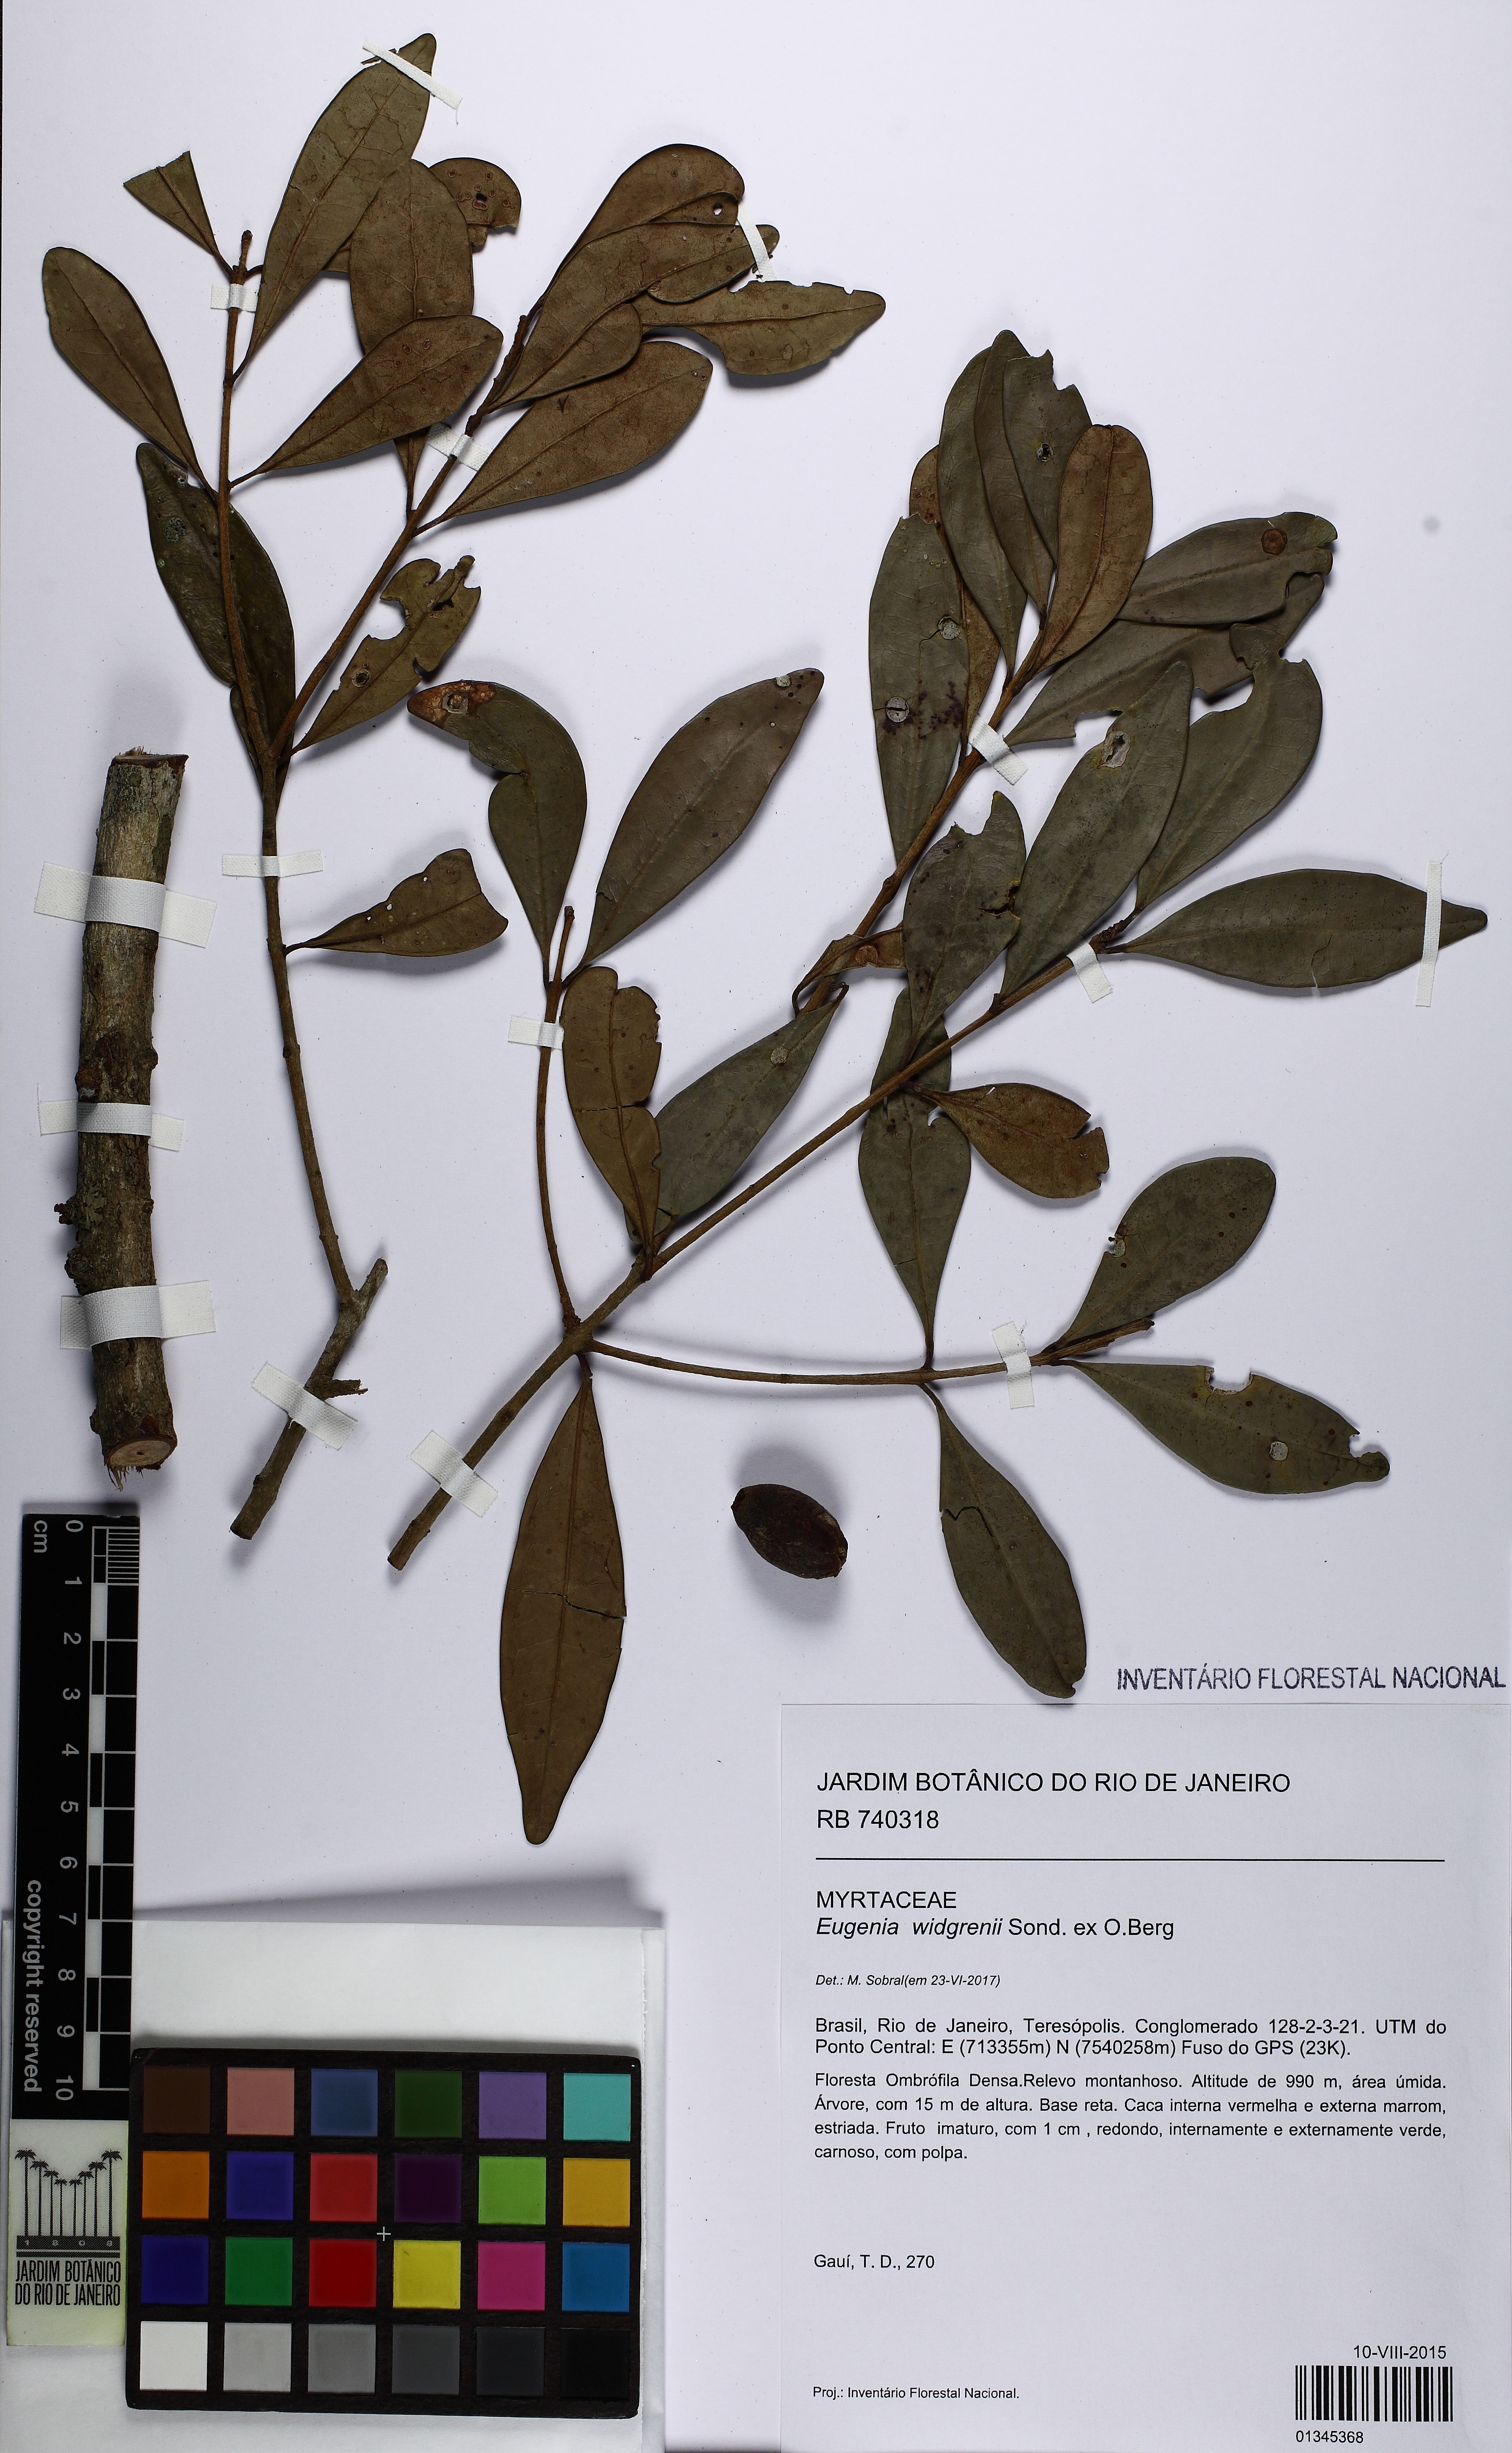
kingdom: Plantae
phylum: Tracheophyta
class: Magnoliopsida
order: Myrtales
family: Myrtaceae
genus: Eugenia
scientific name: Eugenia widgrenii
